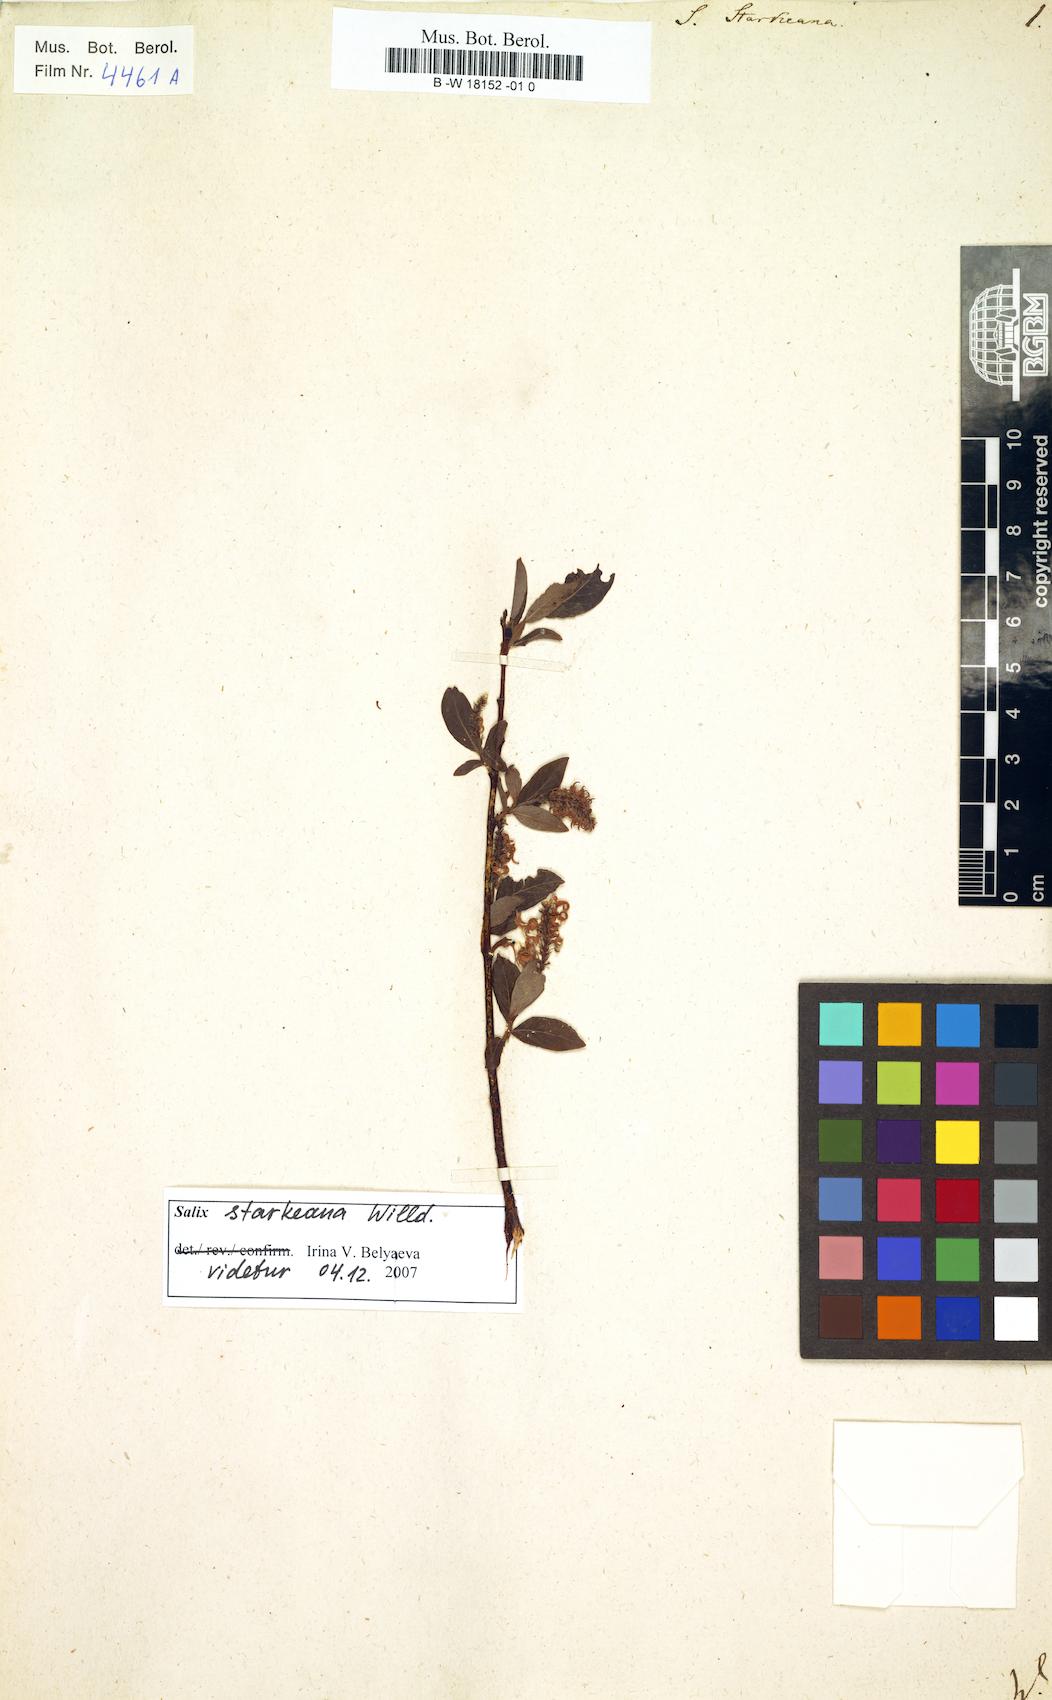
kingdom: Plantae
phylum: Tracheophyta
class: Magnoliopsida
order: Malpighiales
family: Salicaceae
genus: Salix
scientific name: Salix starkeana
